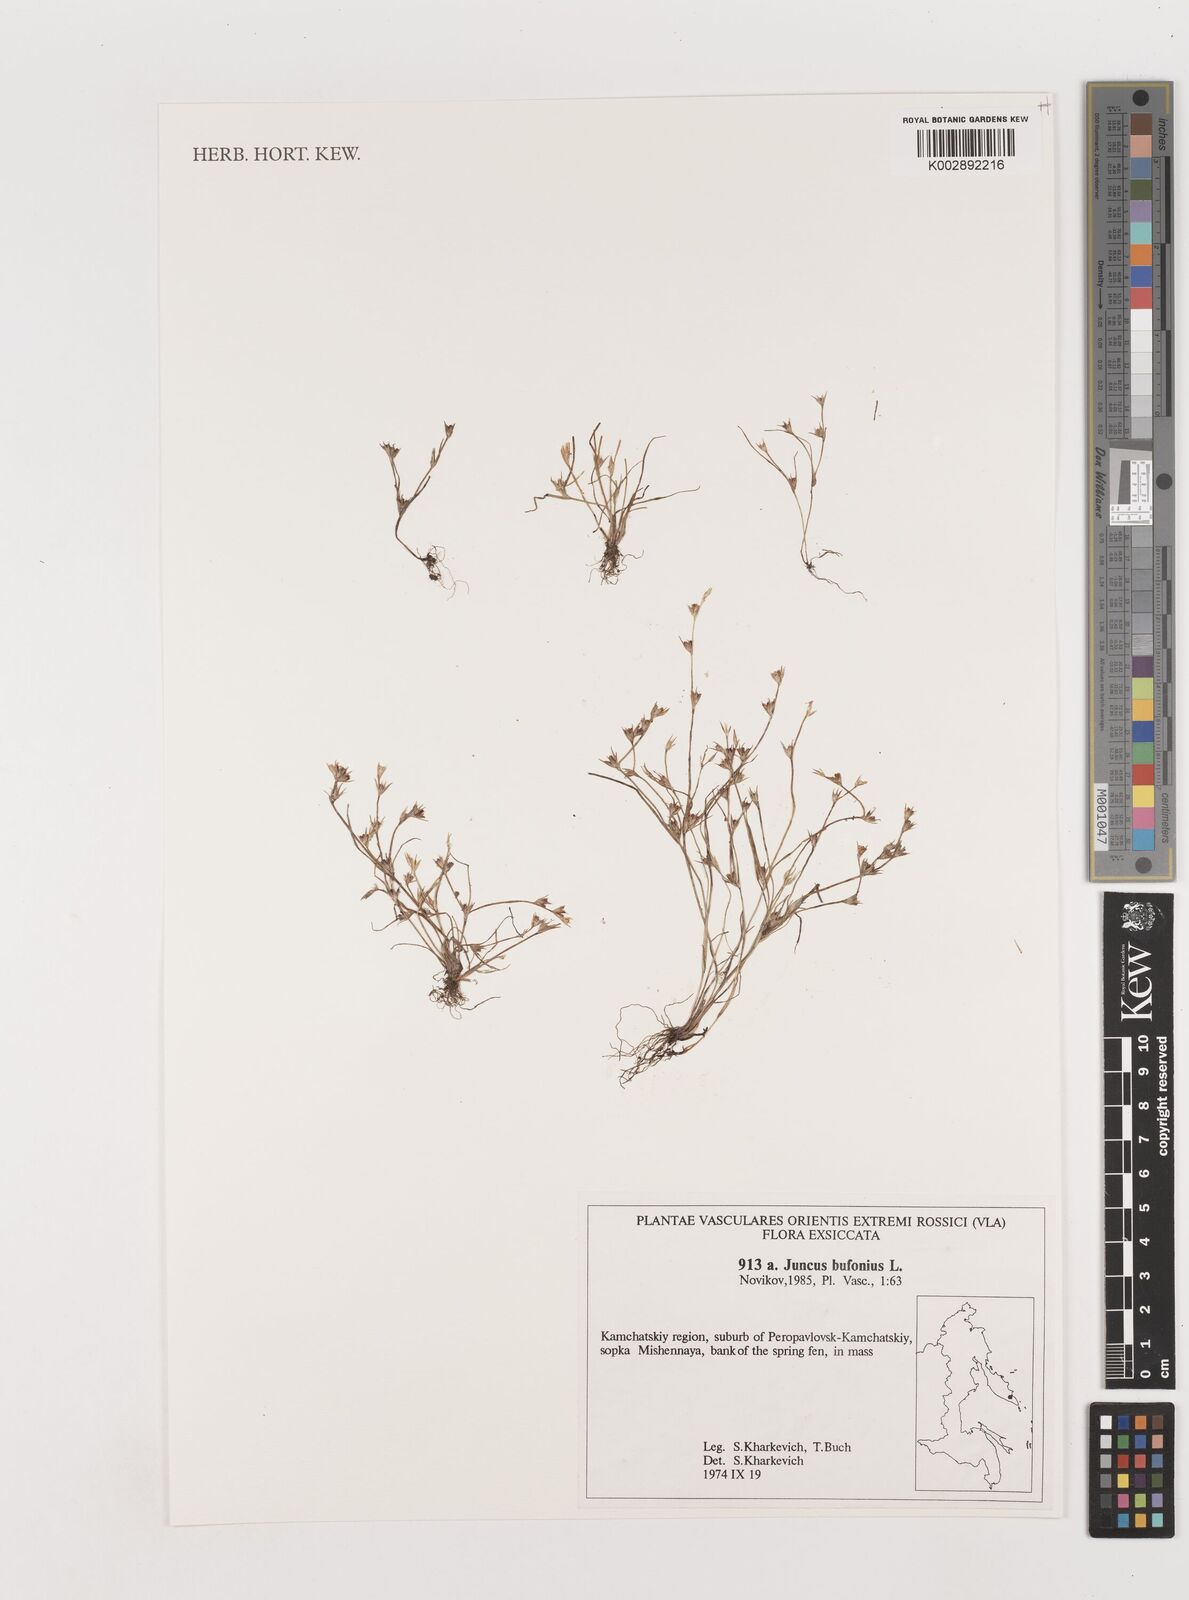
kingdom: Plantae
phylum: Tracheophyta
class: Liliopsida
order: Poales
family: Juncaceae
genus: Juncus
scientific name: Juncus bufonius
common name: Toad rush
